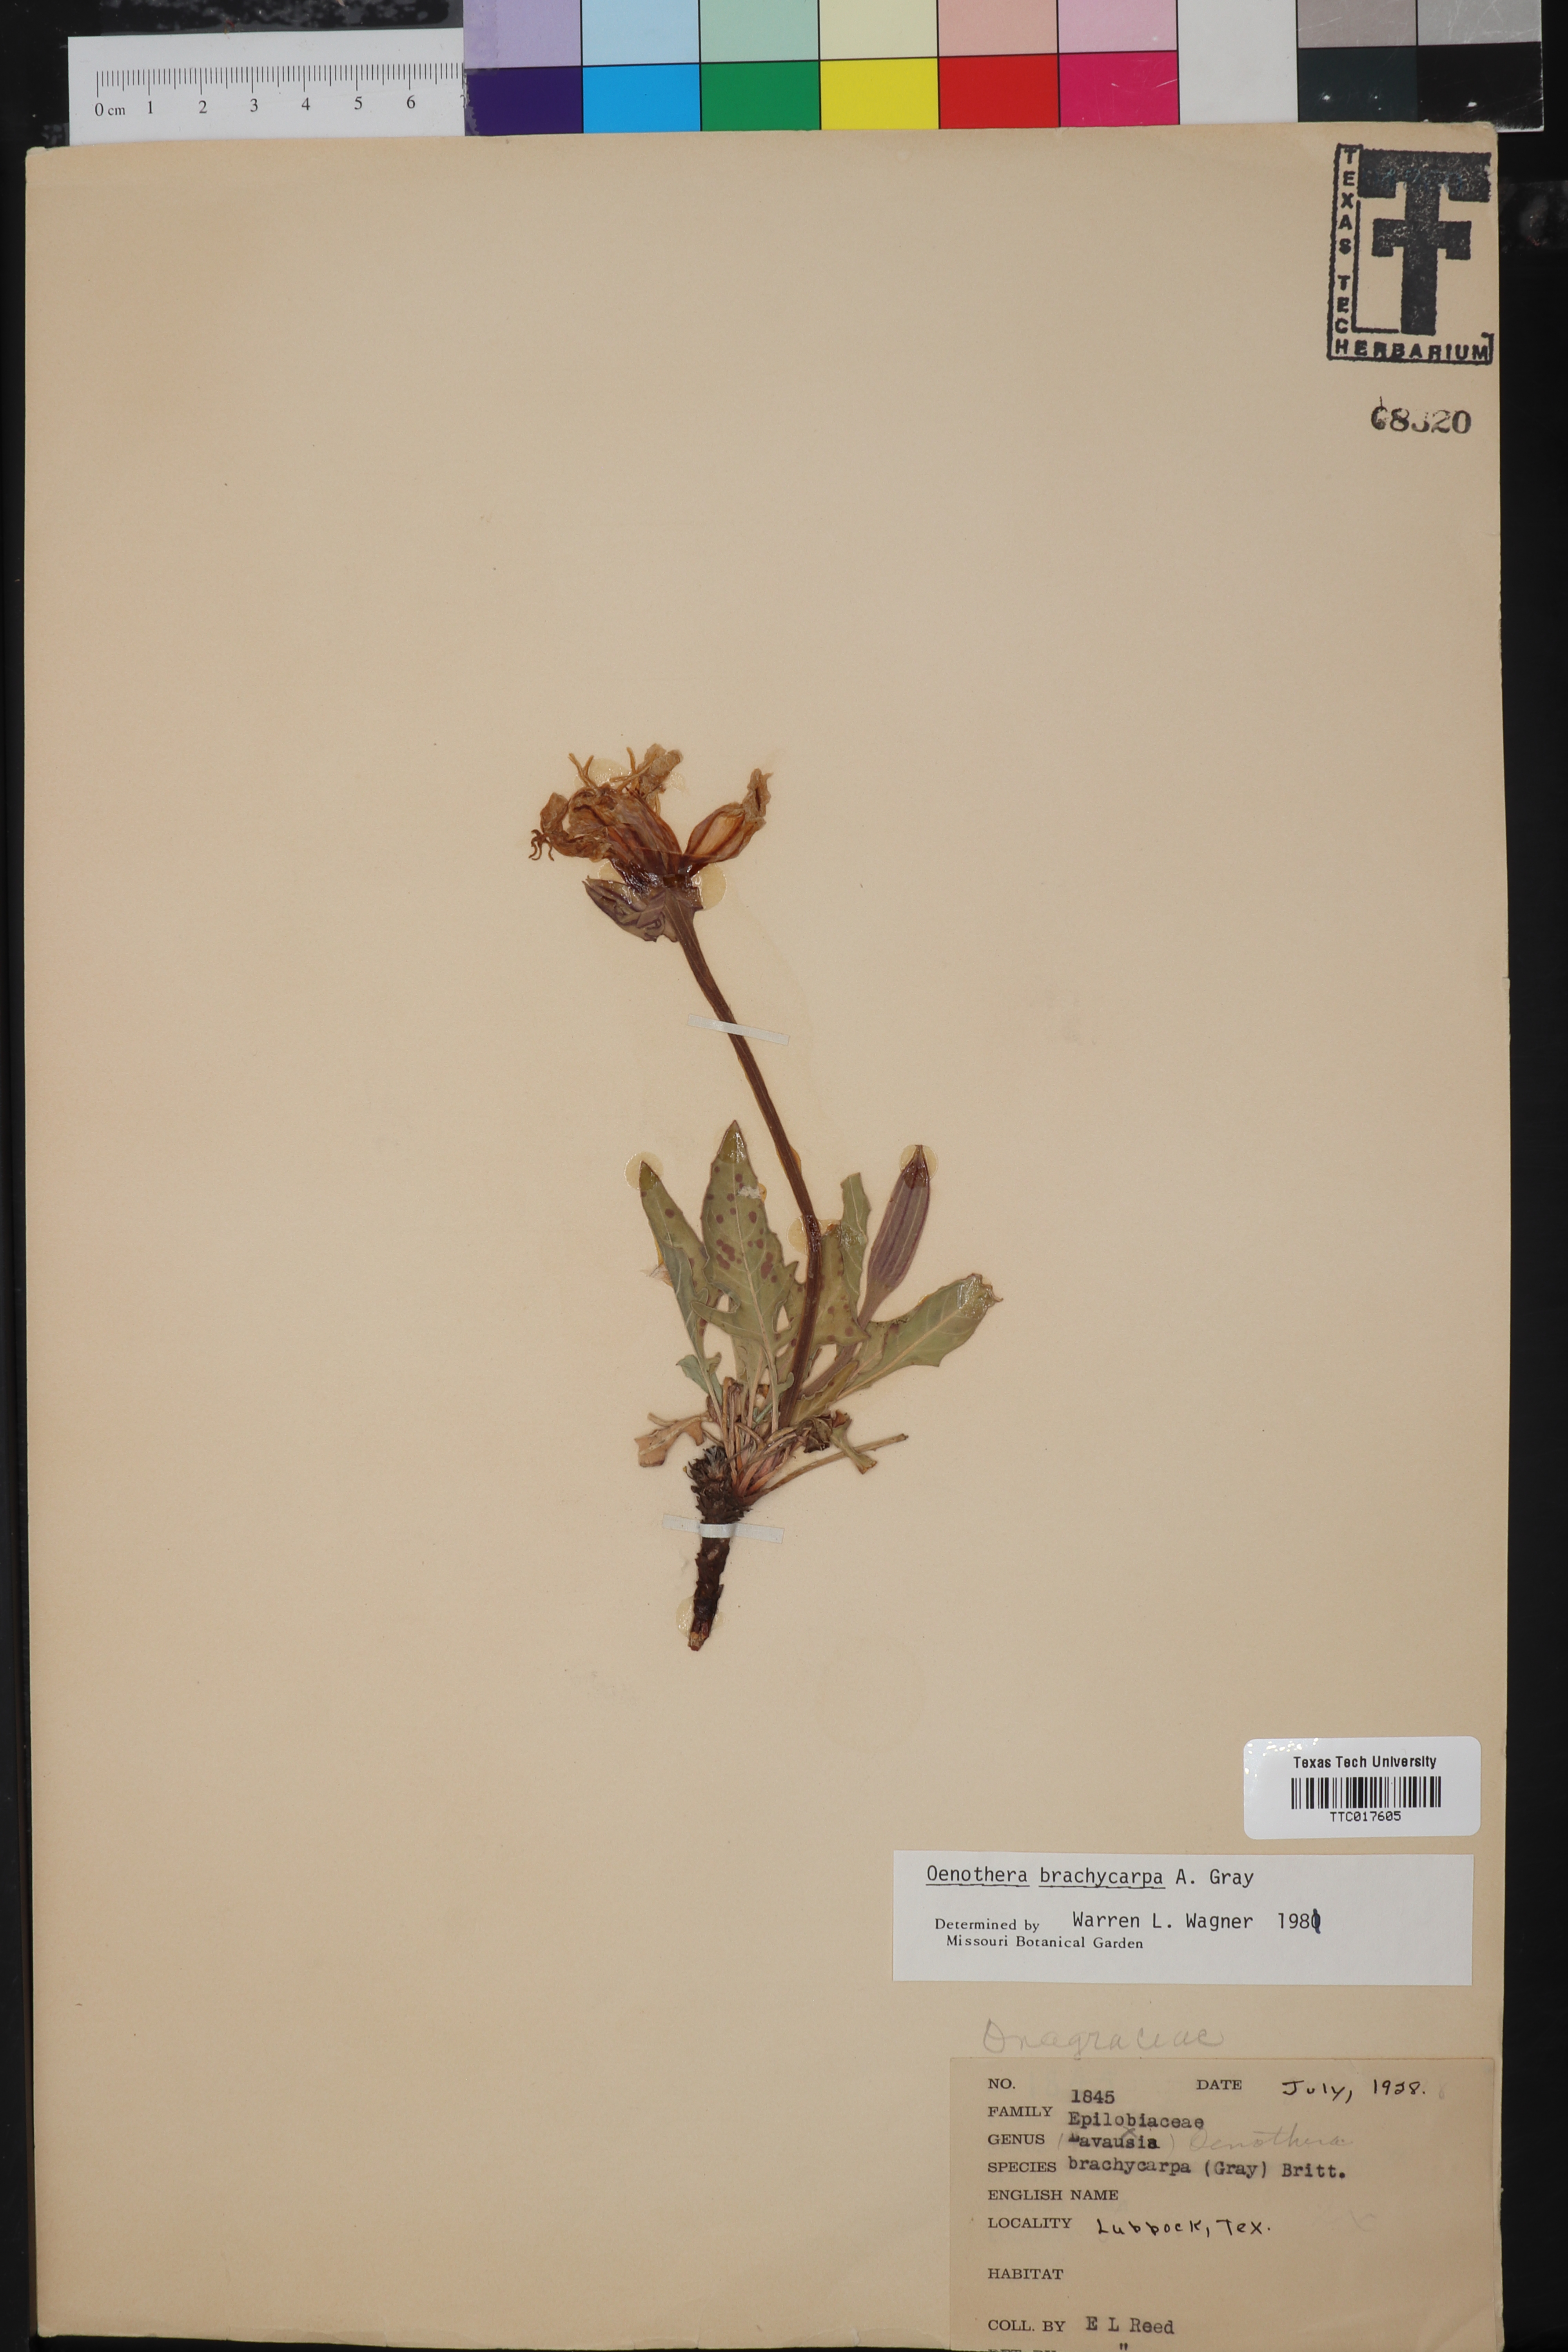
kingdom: Plantae
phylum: Tracheophyta
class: Magnoliopsida
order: Myrtales
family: Onagraceae
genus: Oenothera
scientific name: Oenothera brachycarpa
